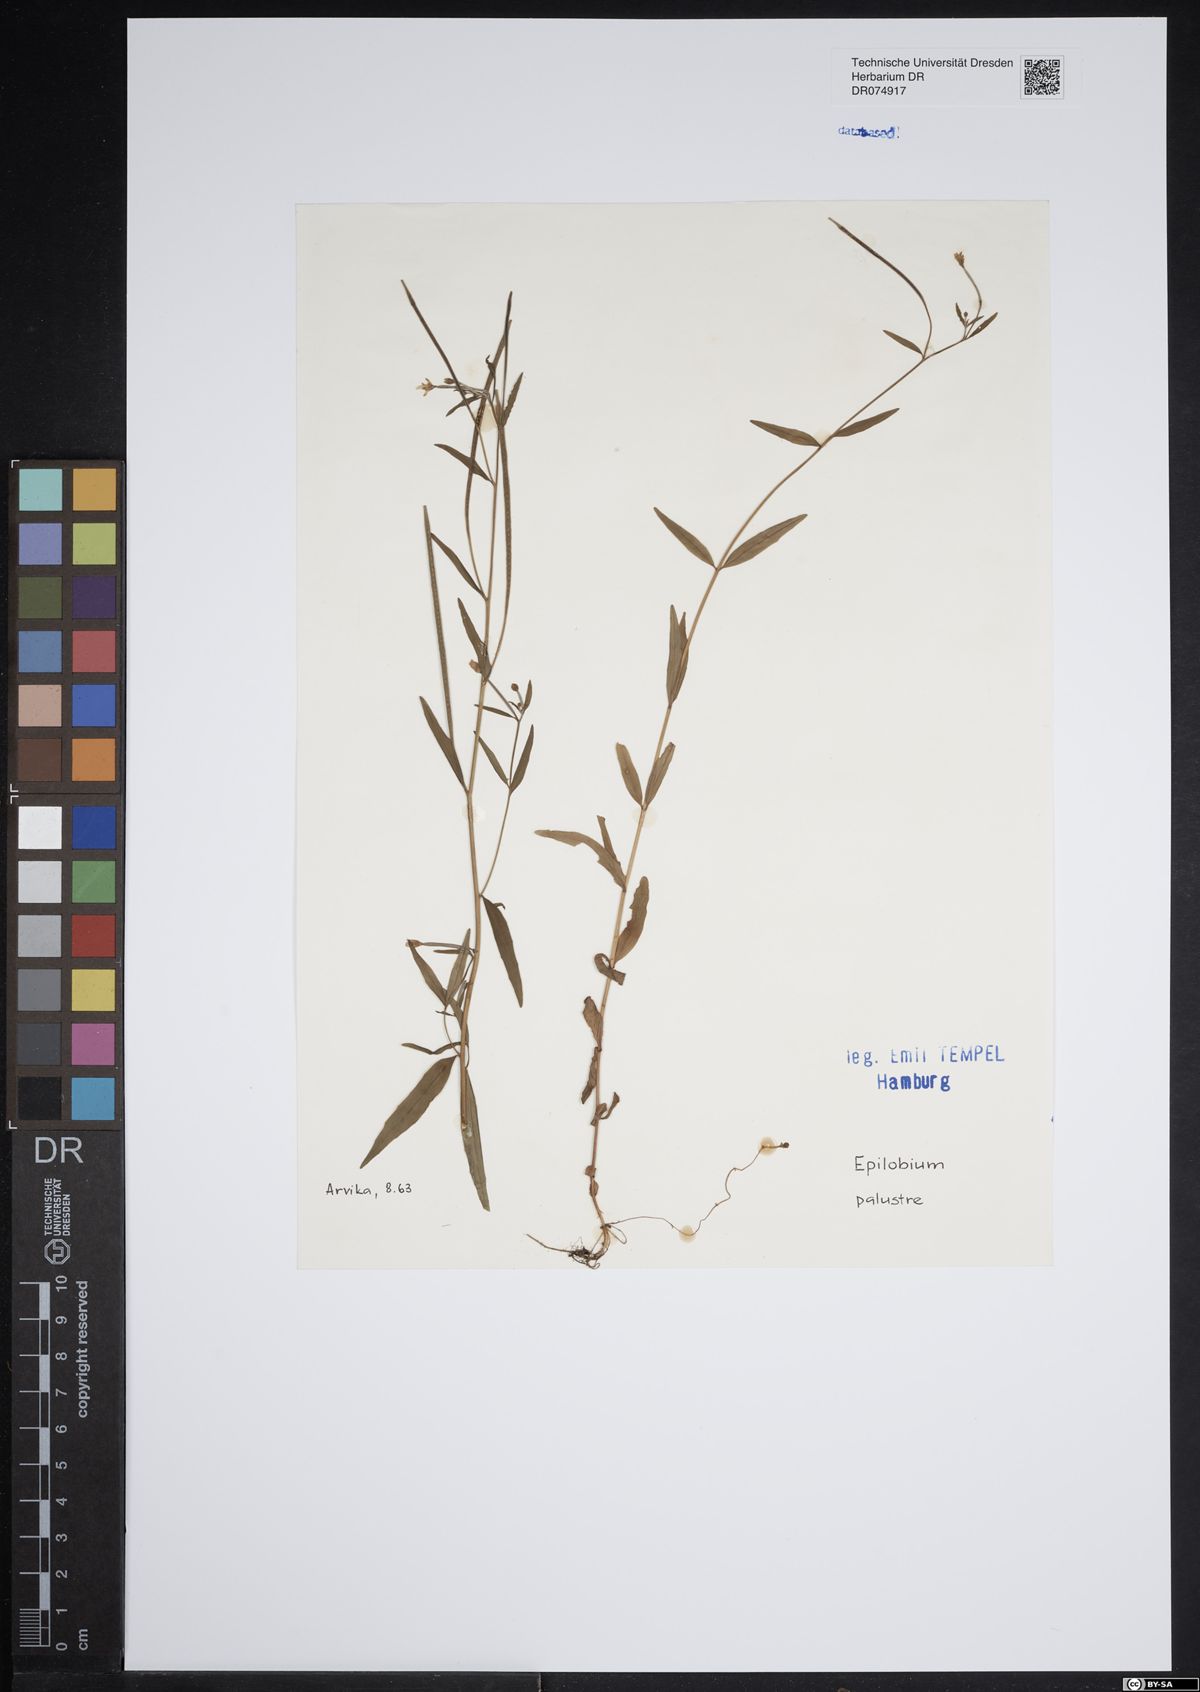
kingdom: Plantae
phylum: Tracheophyta
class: Magnoliopsida
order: Myrtales
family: Onagraceae
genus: Epilobium
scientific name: Epilobium palustre
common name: Marsh willowherb
